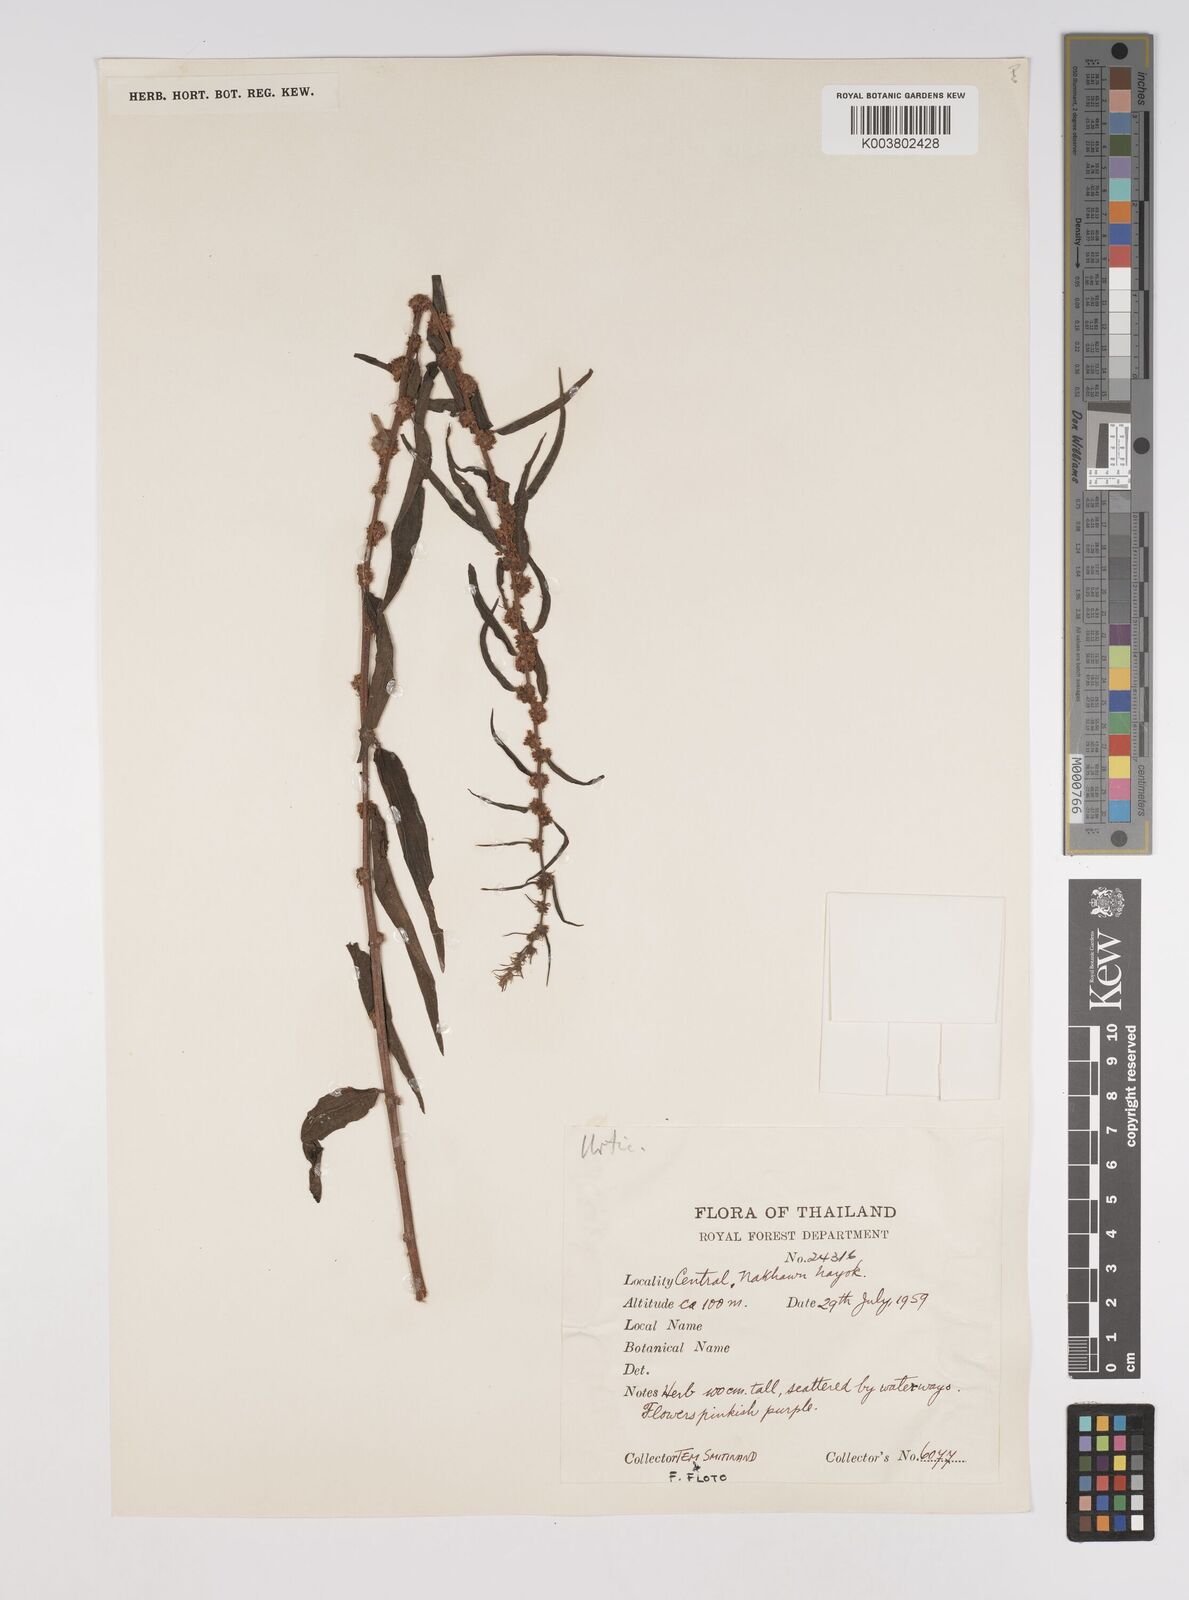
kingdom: Plantae
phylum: Tracheophyta
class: Magnoliopsida
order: Rosales
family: Urticaceae
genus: Pouzolzia
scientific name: Pouzolzia zeylanica
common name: Graceful pouzolzsbush
